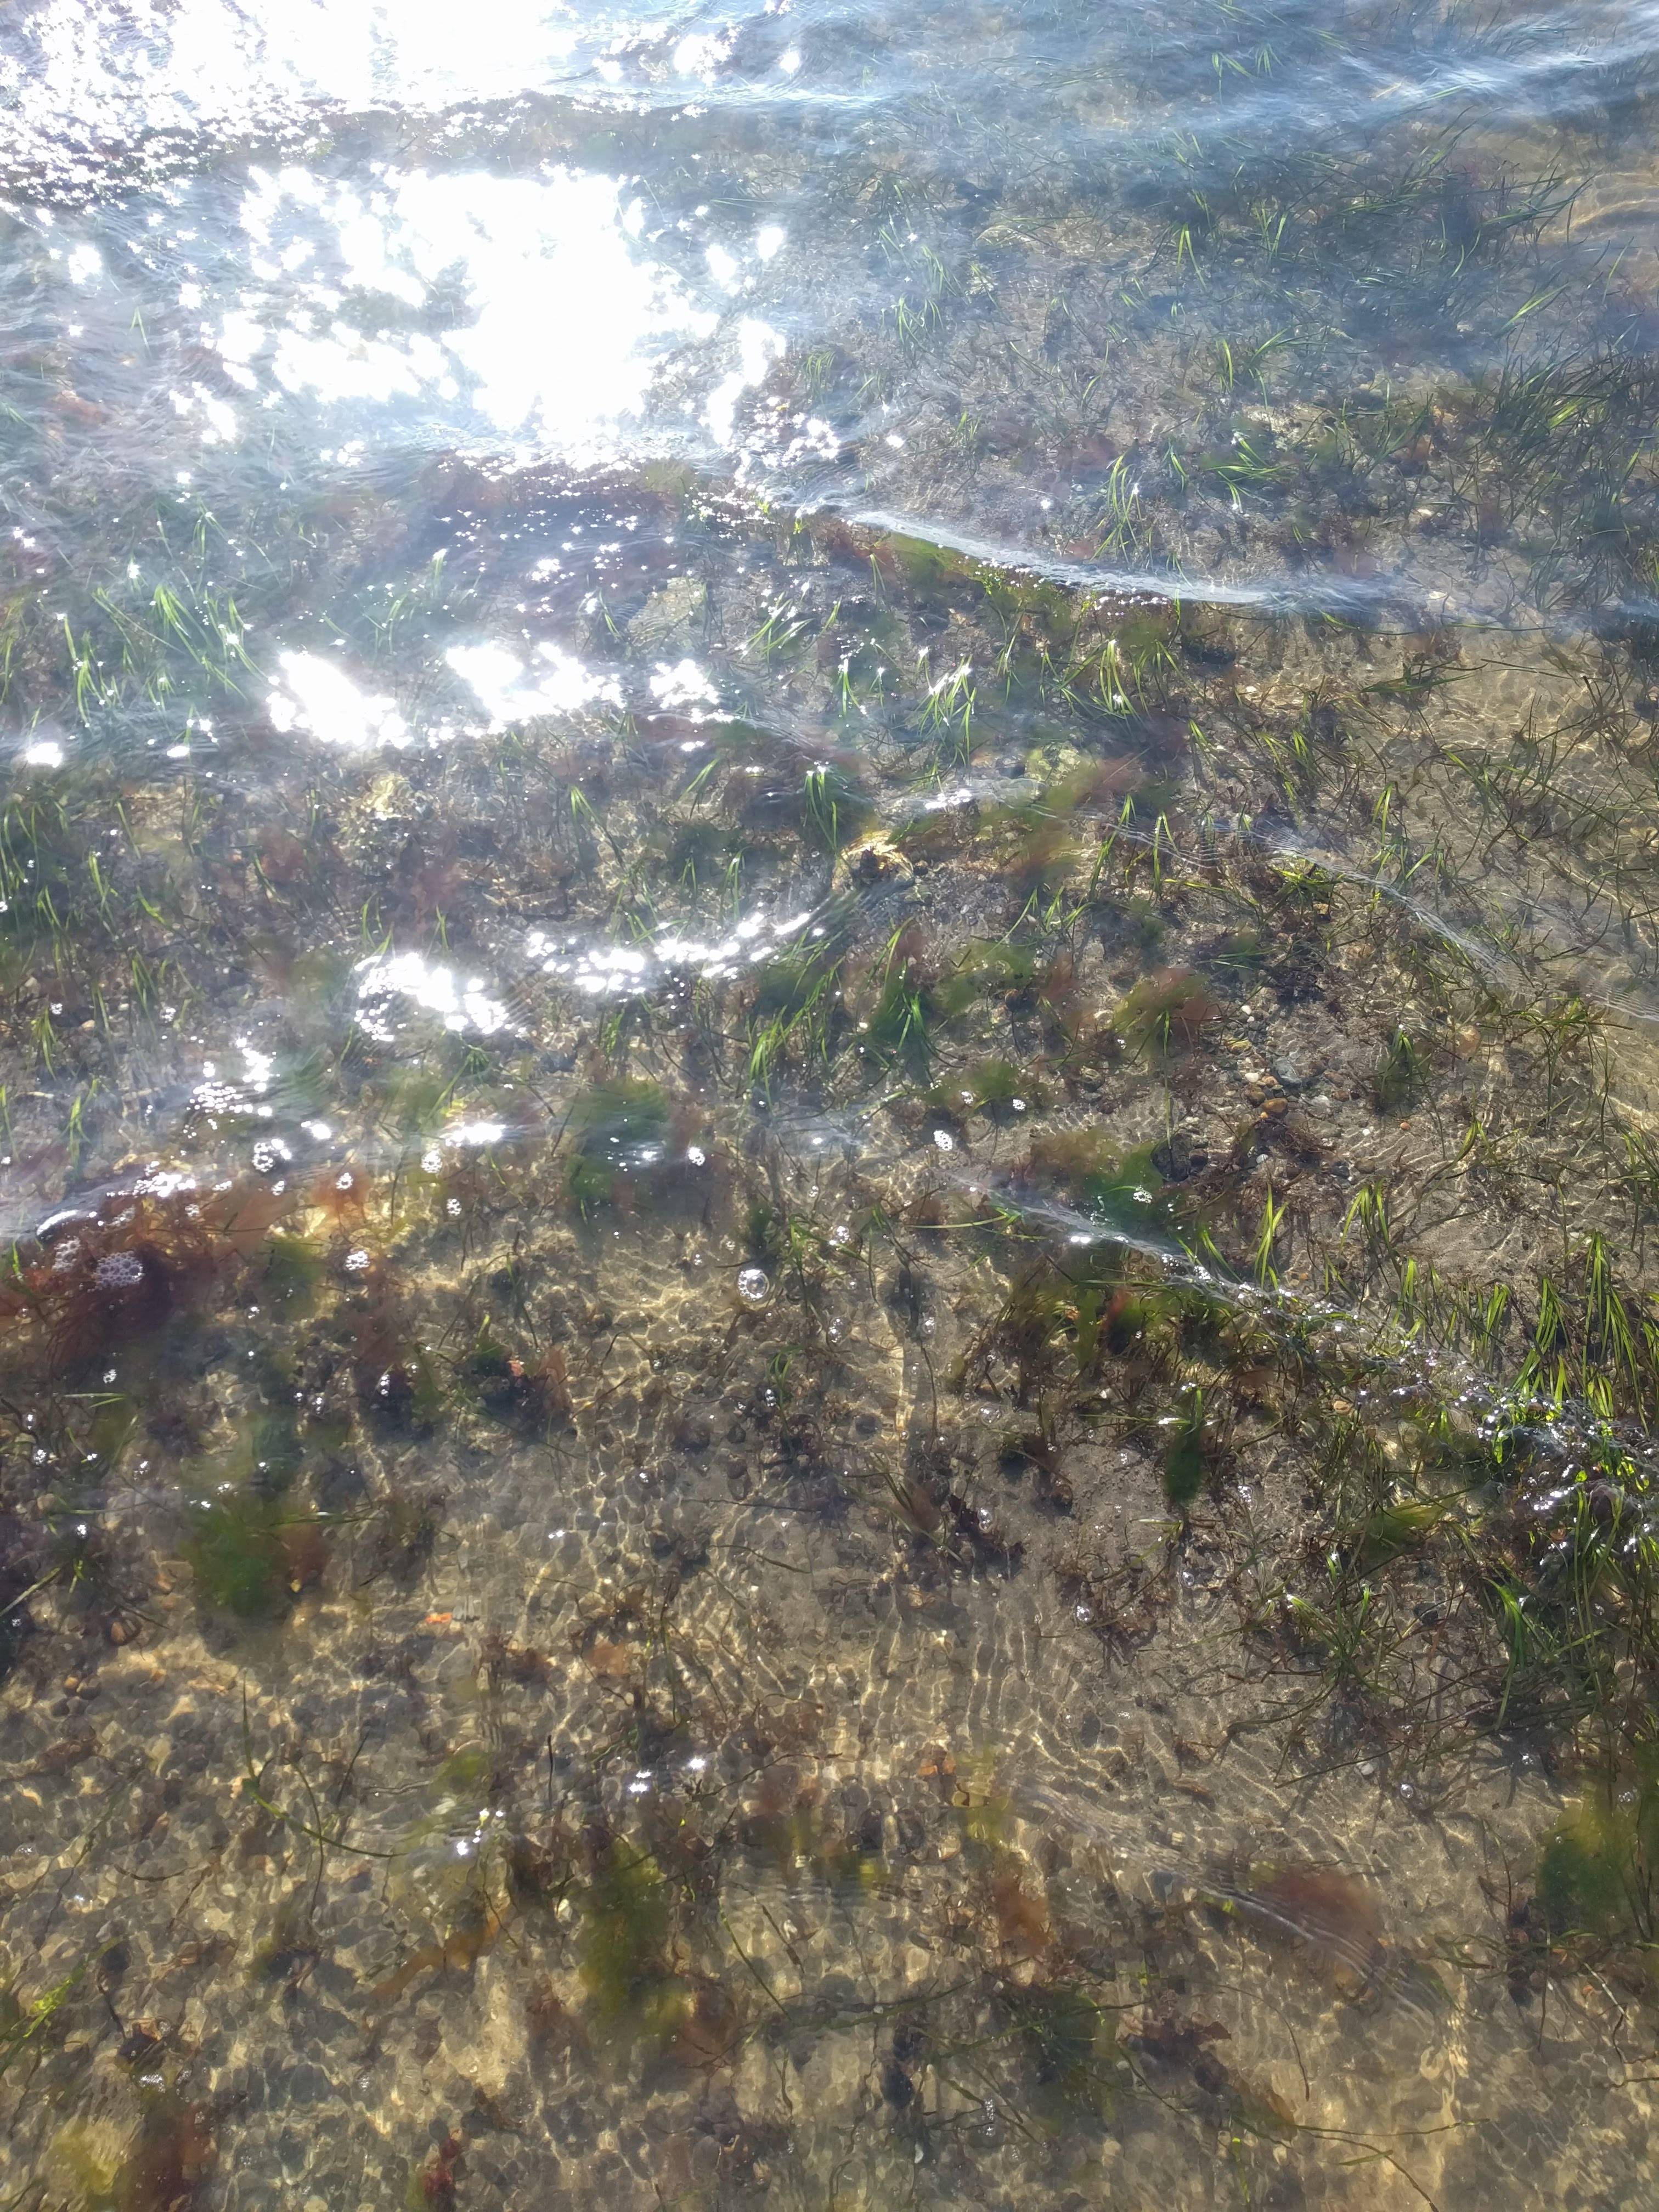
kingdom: Plantae
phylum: Tracheophyta
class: Liliopsida
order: Alismatales
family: Zosteraceae
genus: Zostera
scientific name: Zostera marina
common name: Eelgrass
